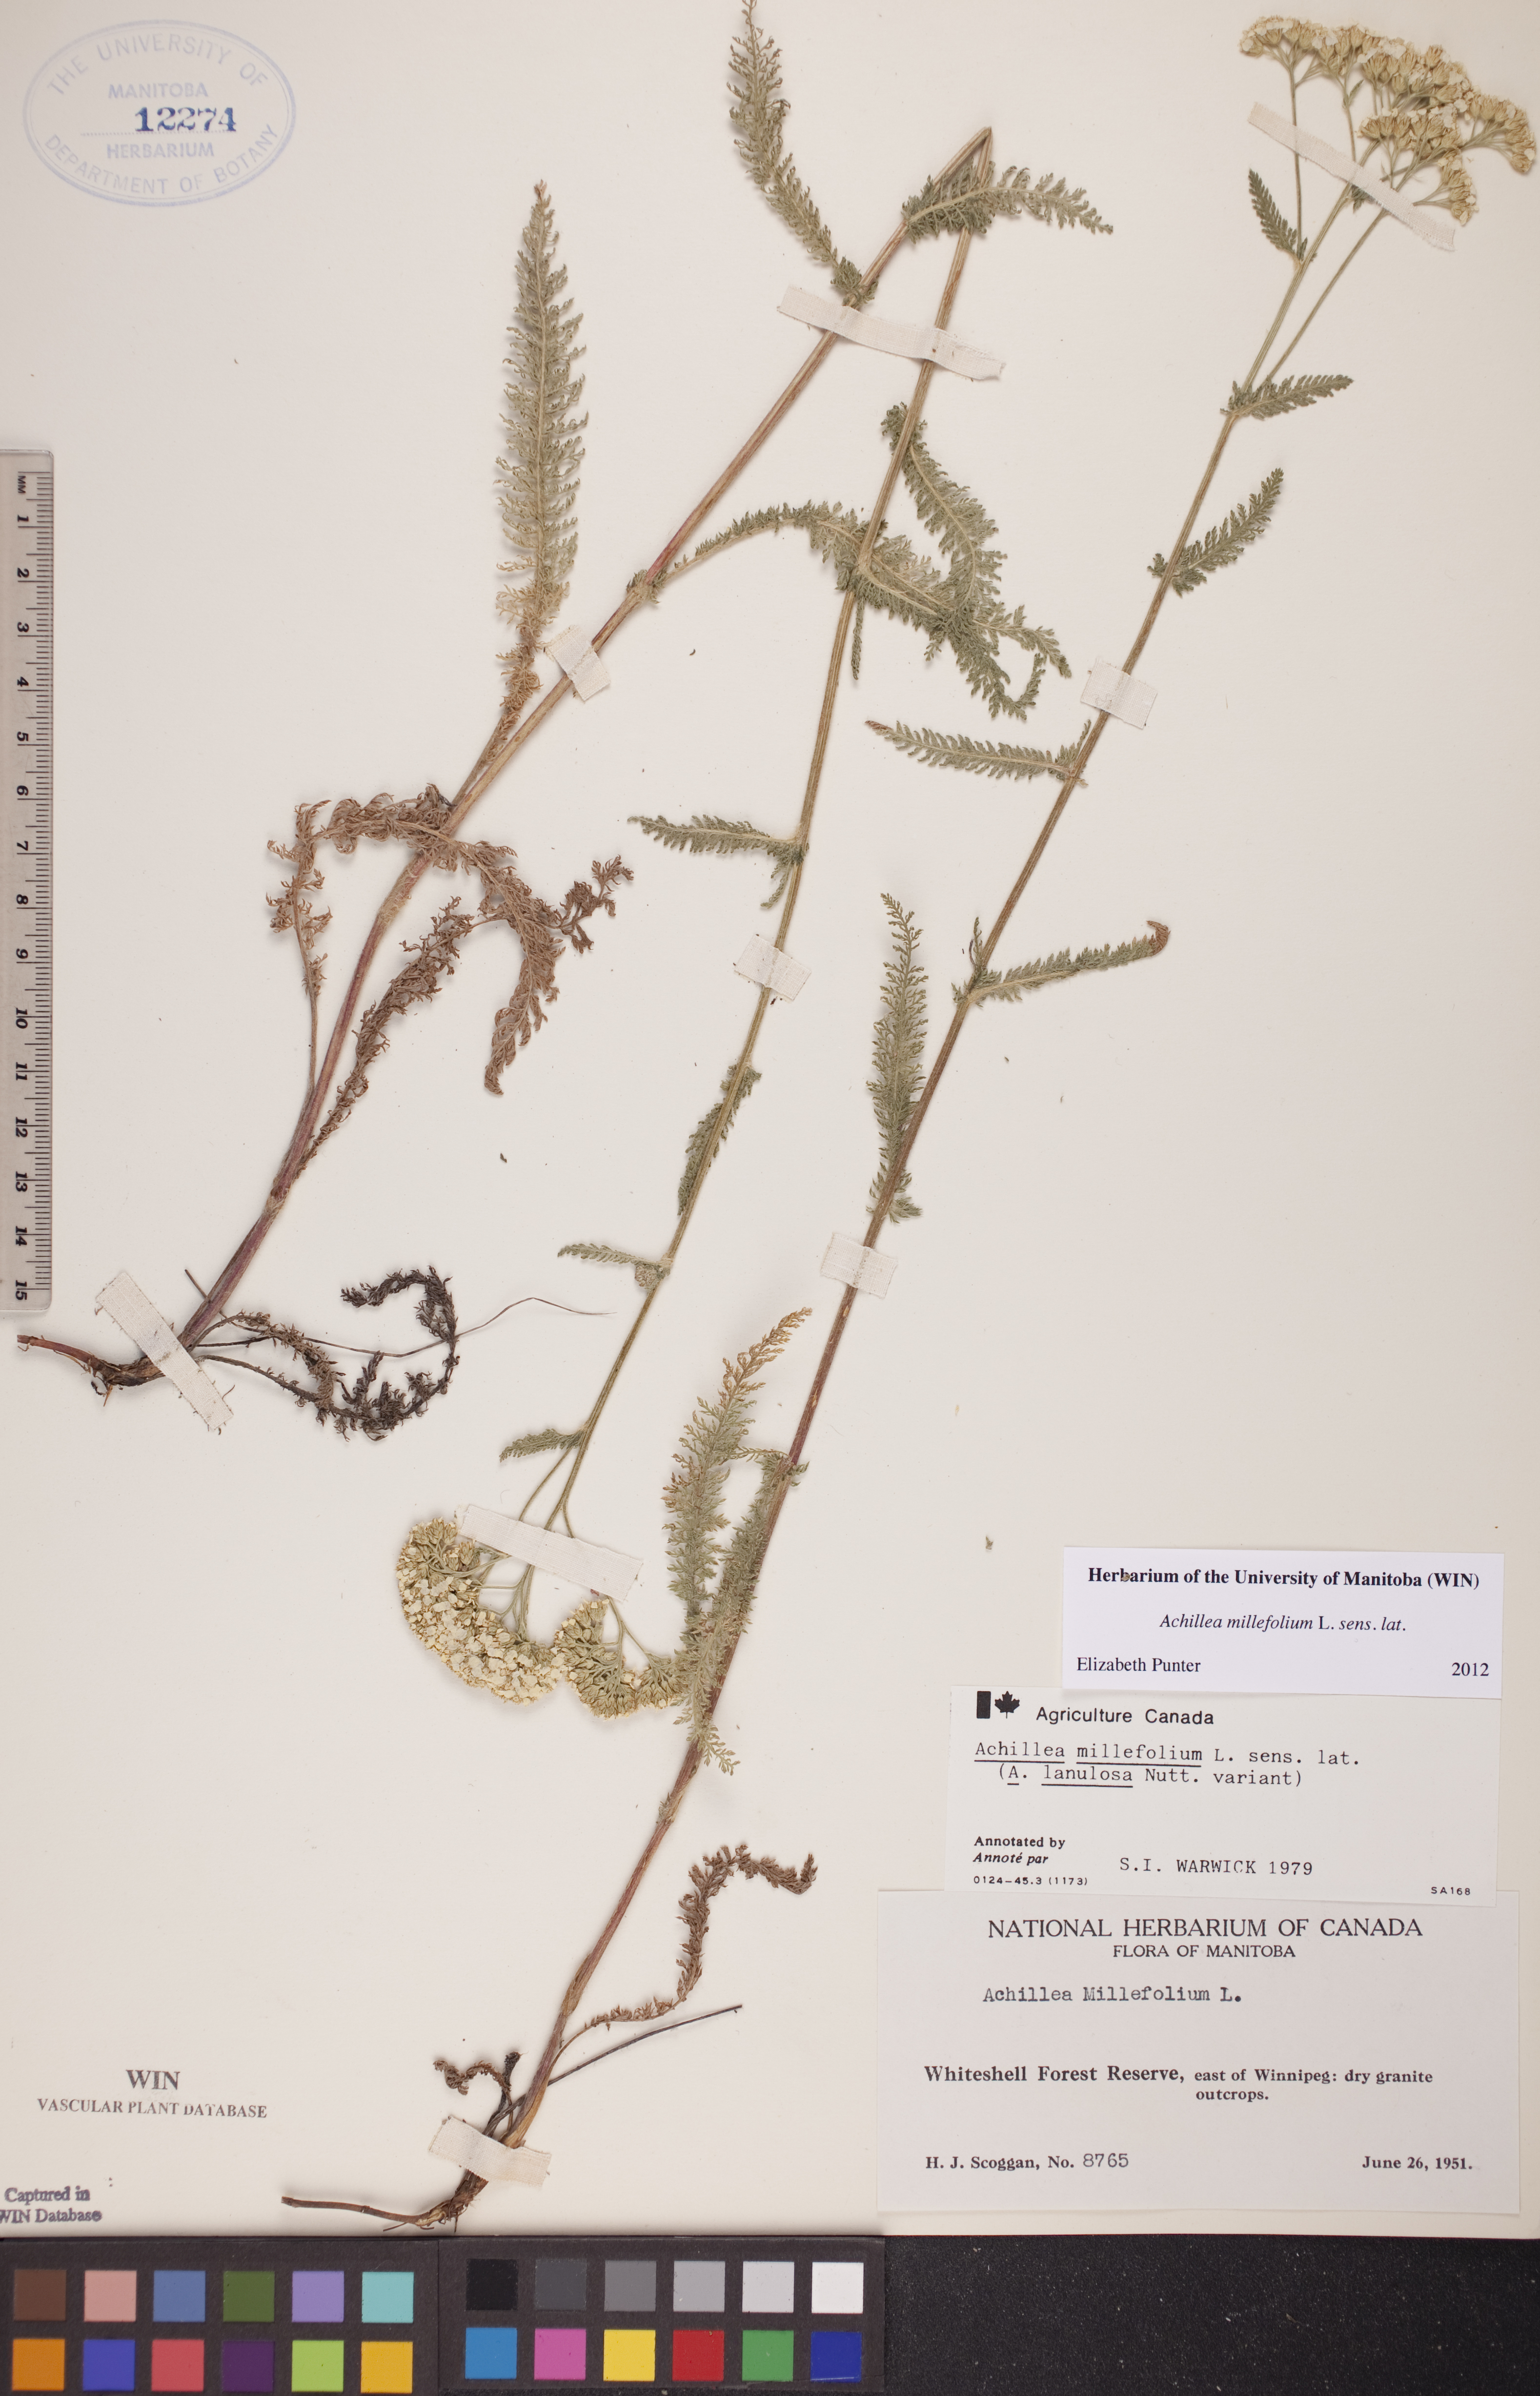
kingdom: Plantae
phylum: Tracheophyta
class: Magnoliopsida
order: Asterales
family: Asteraceae
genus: Achillea
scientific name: Achillea millefolium
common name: Yarrow
